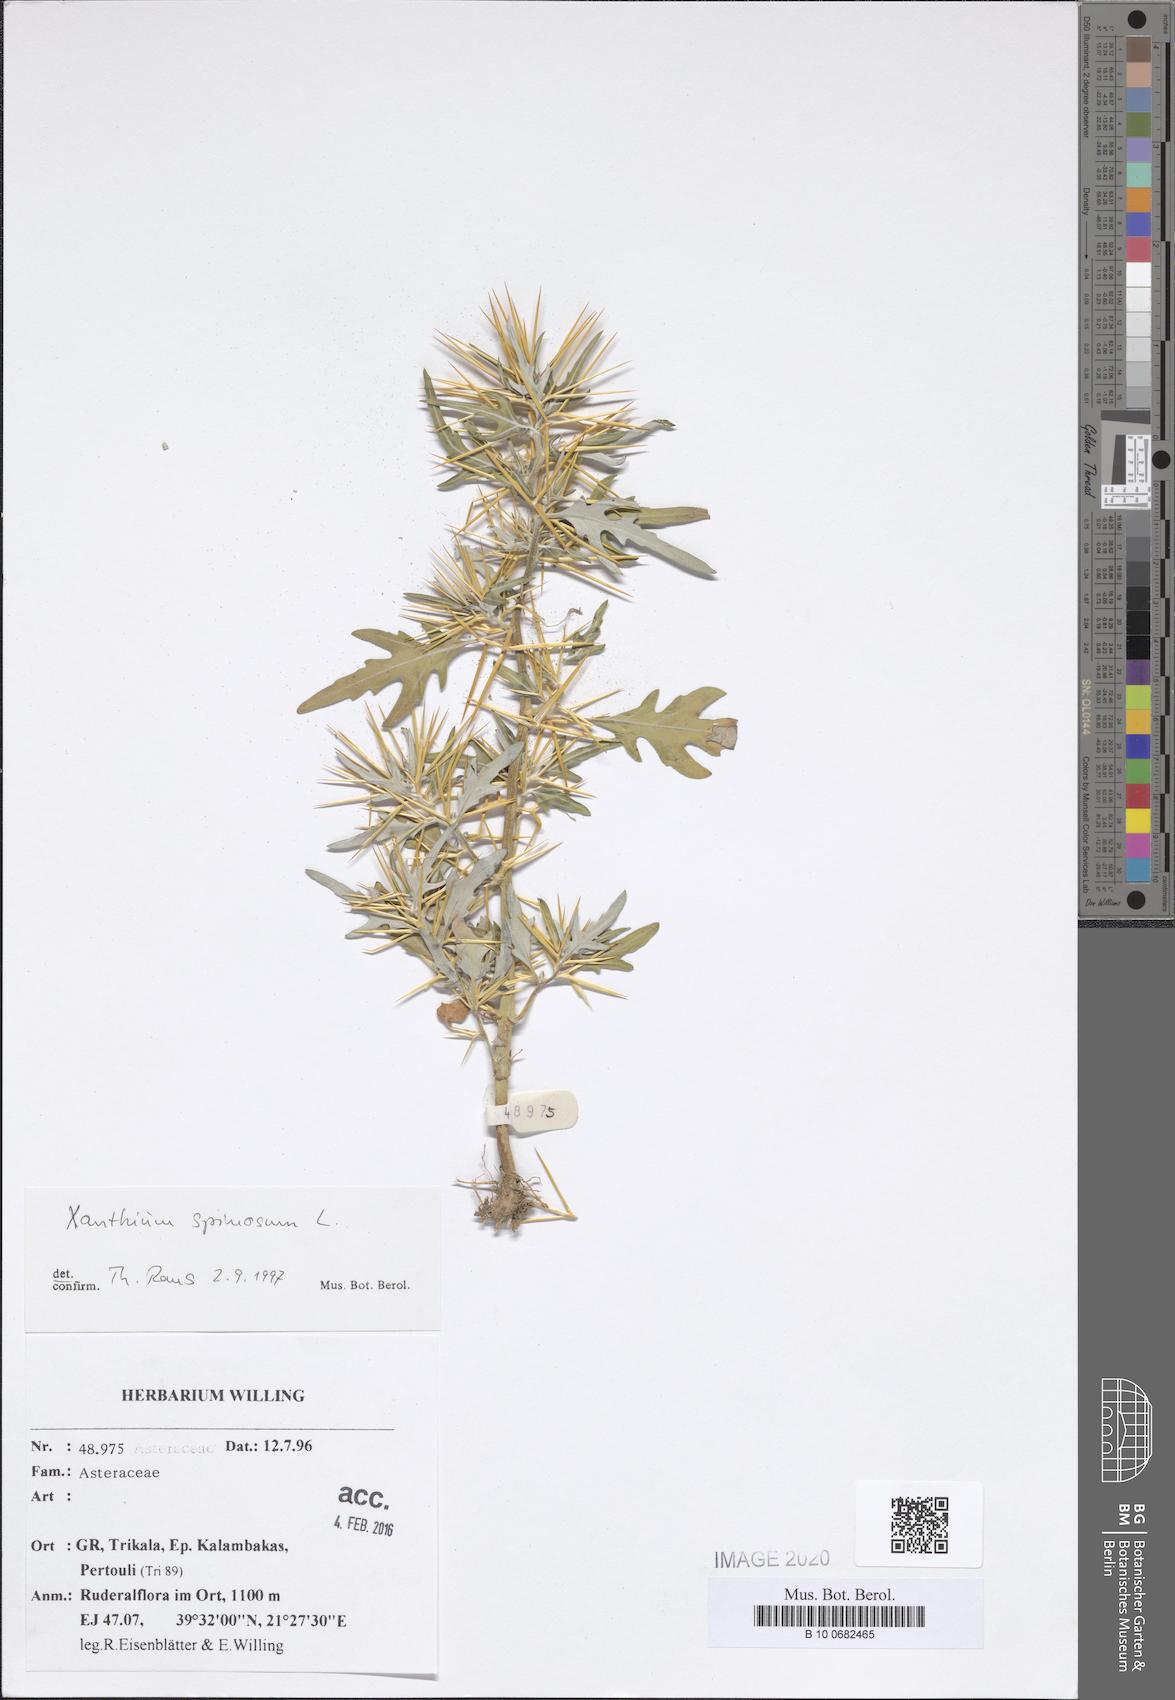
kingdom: Plantae
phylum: Tracheophyta
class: Magnoliopsida
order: Asterales
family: Asteraceae
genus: Xanthium
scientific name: Xanthium spinosum
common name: Spiny cocklebur
